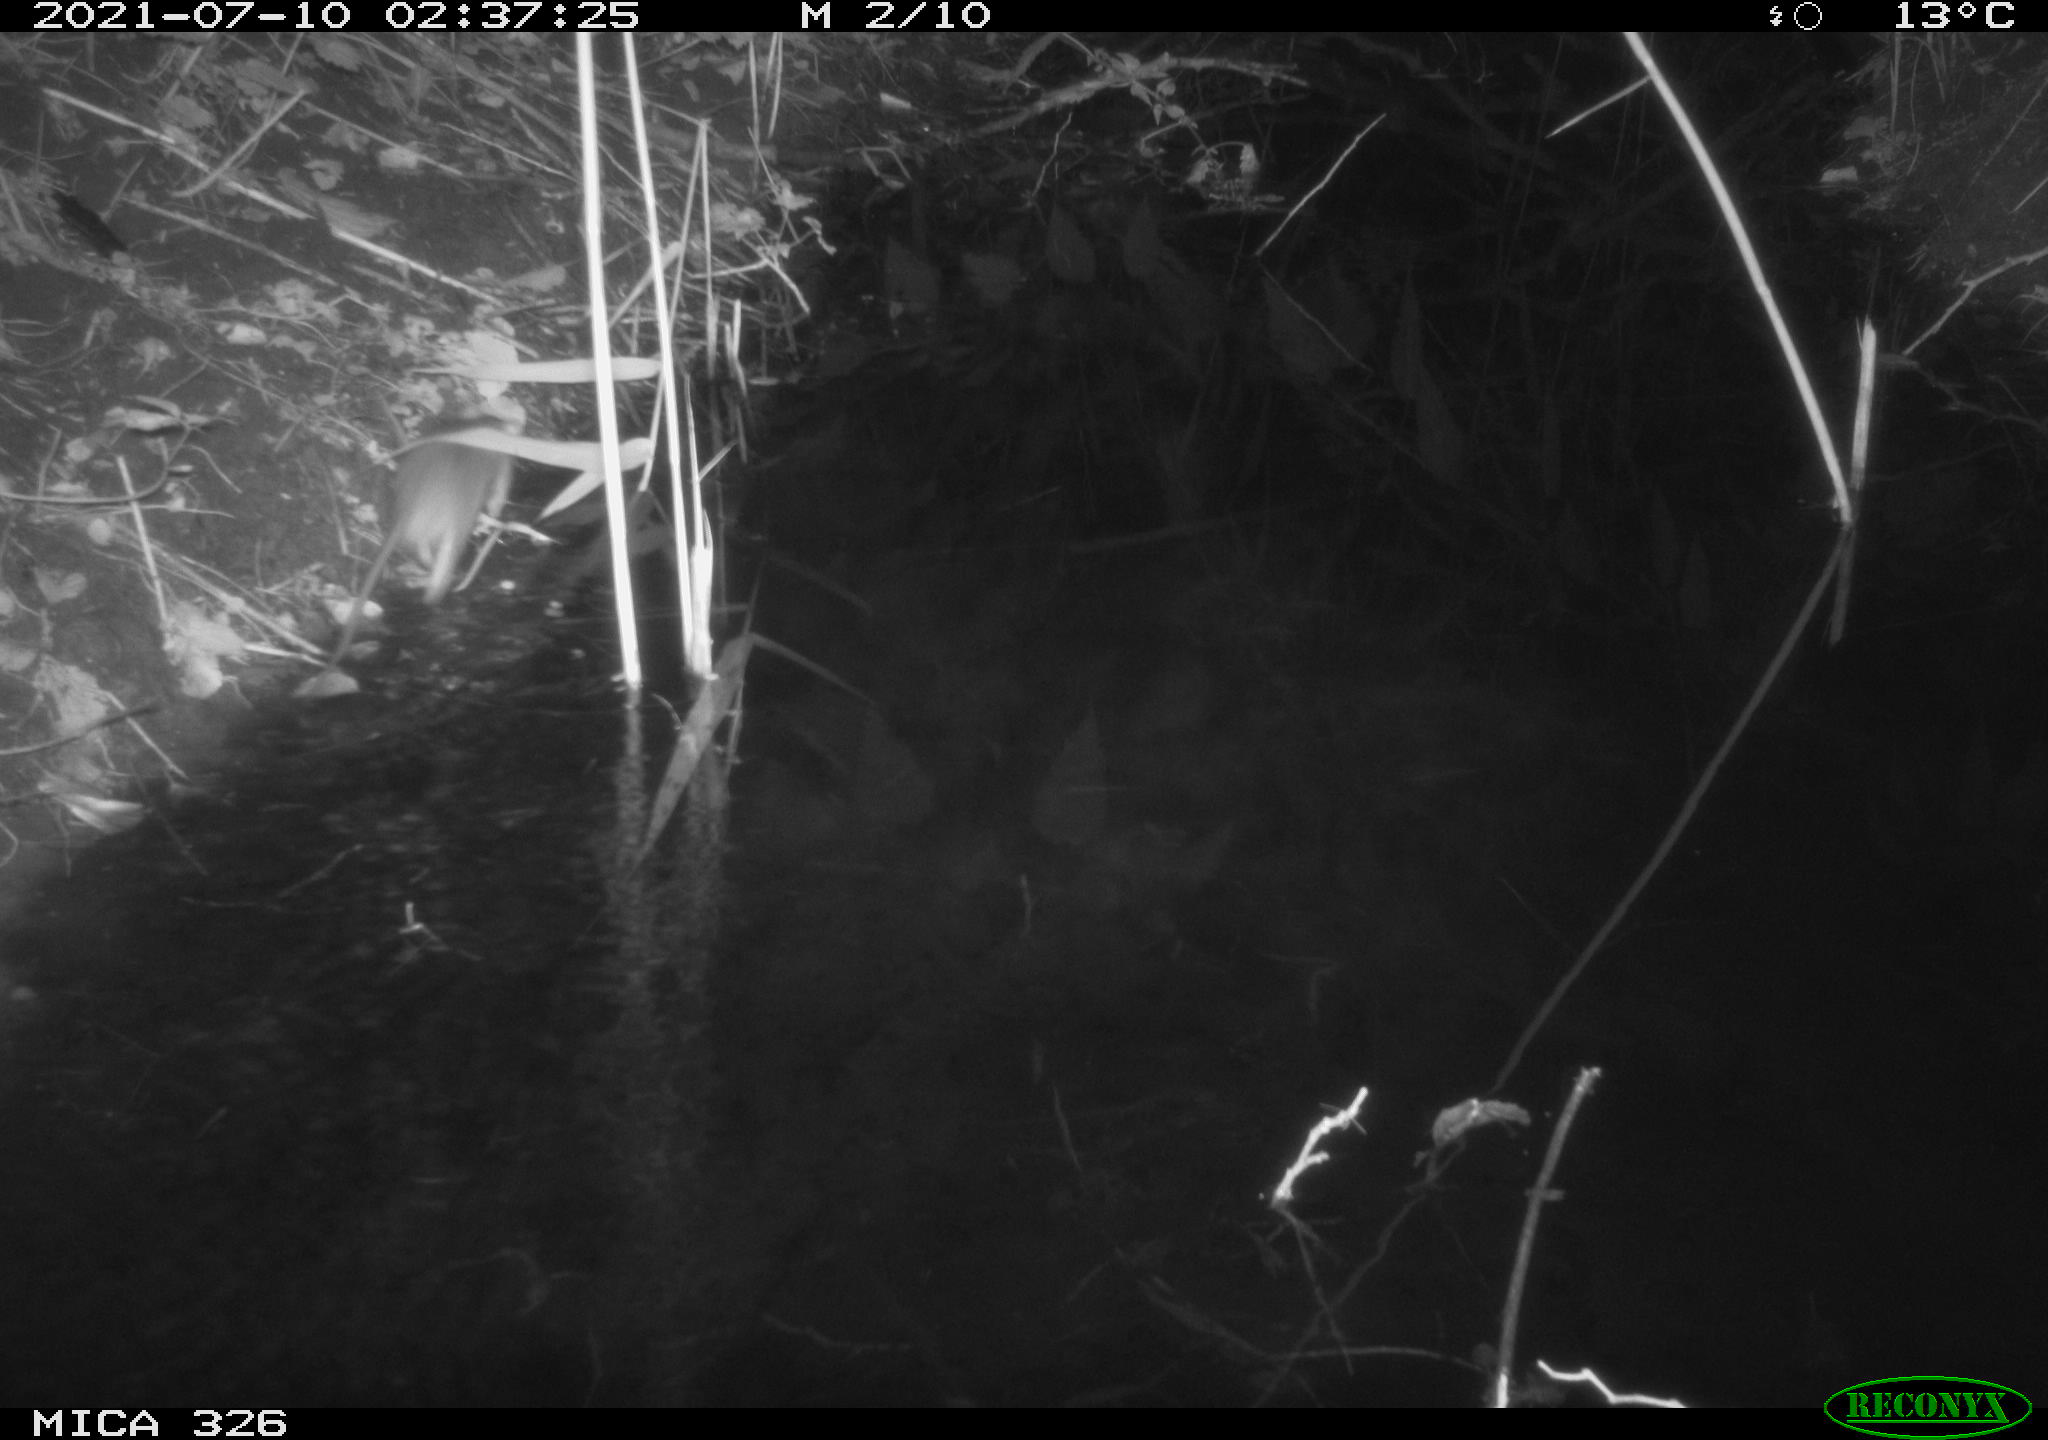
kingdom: Animalia
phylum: Chordata
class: Mammalia
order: Rodentia
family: Muridae
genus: Rattus
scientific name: Rattus norvegicus
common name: Brown rat
